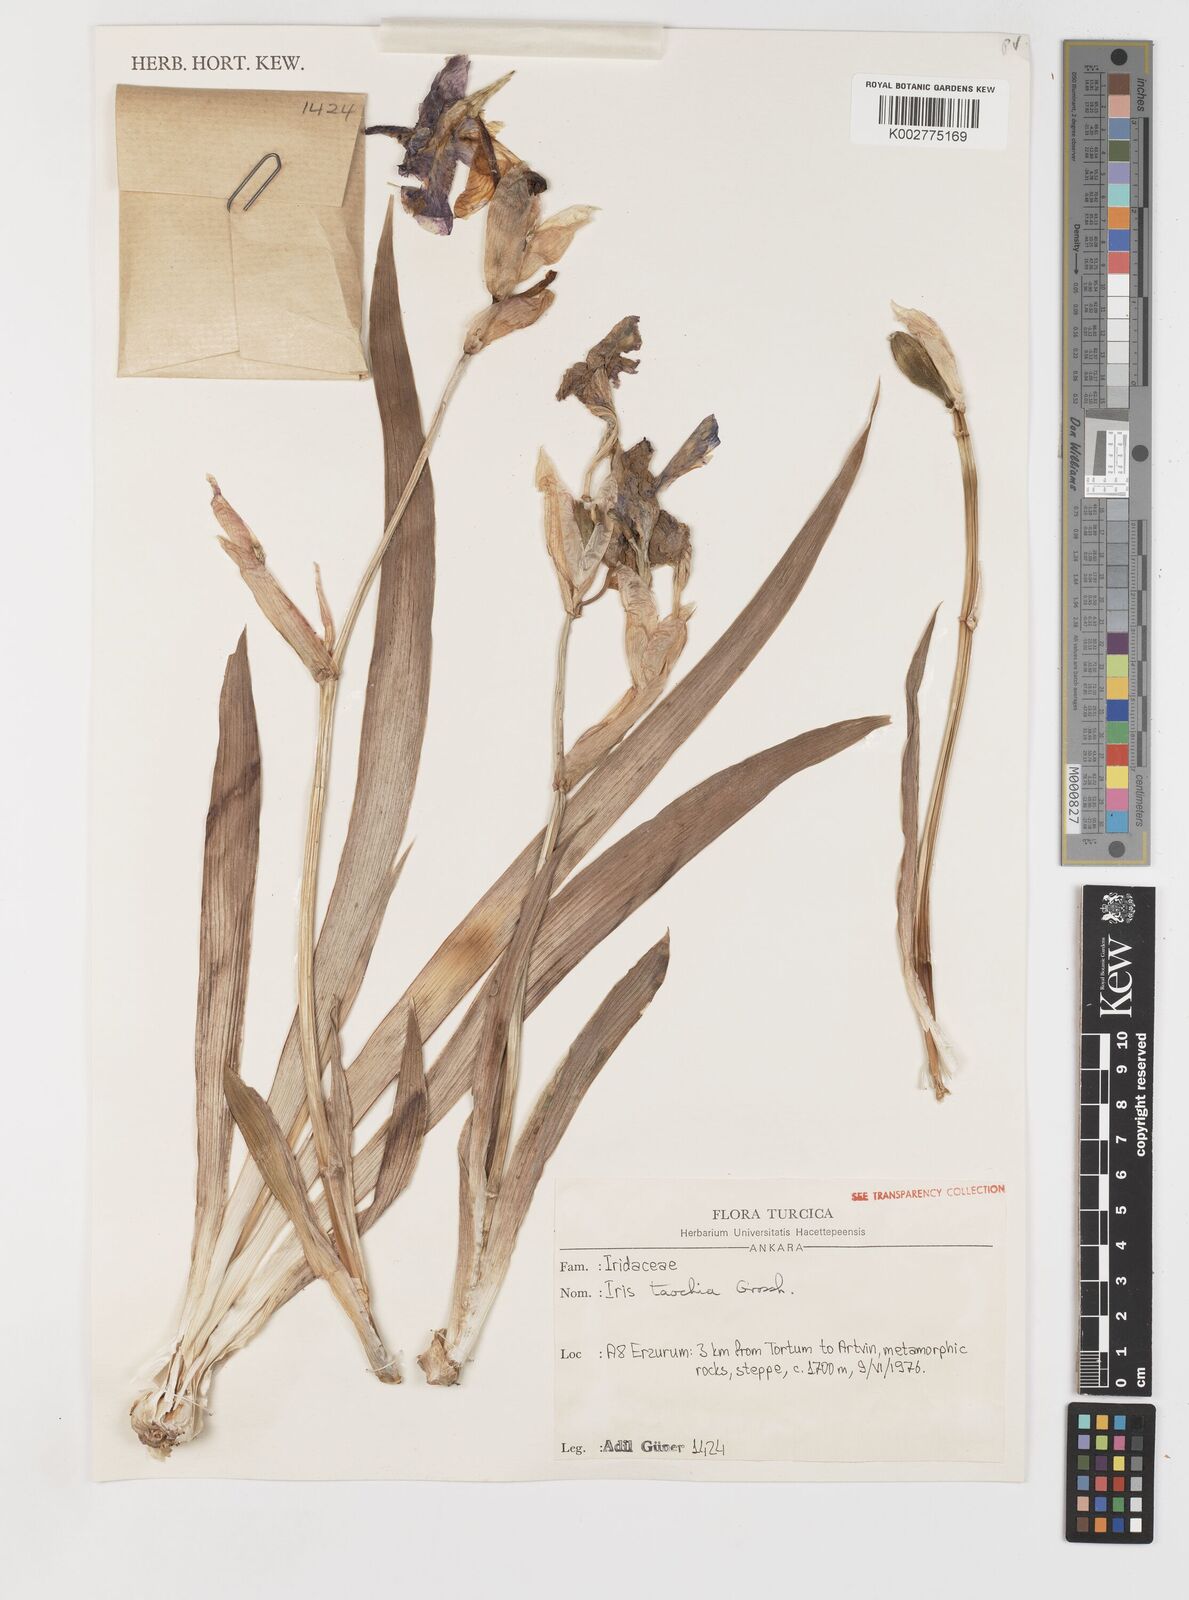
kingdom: Plantae
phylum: Tracheophyta
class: Liliopsida
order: Asparagales
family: Iridaceae
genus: Iris
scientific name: Iris taochia
